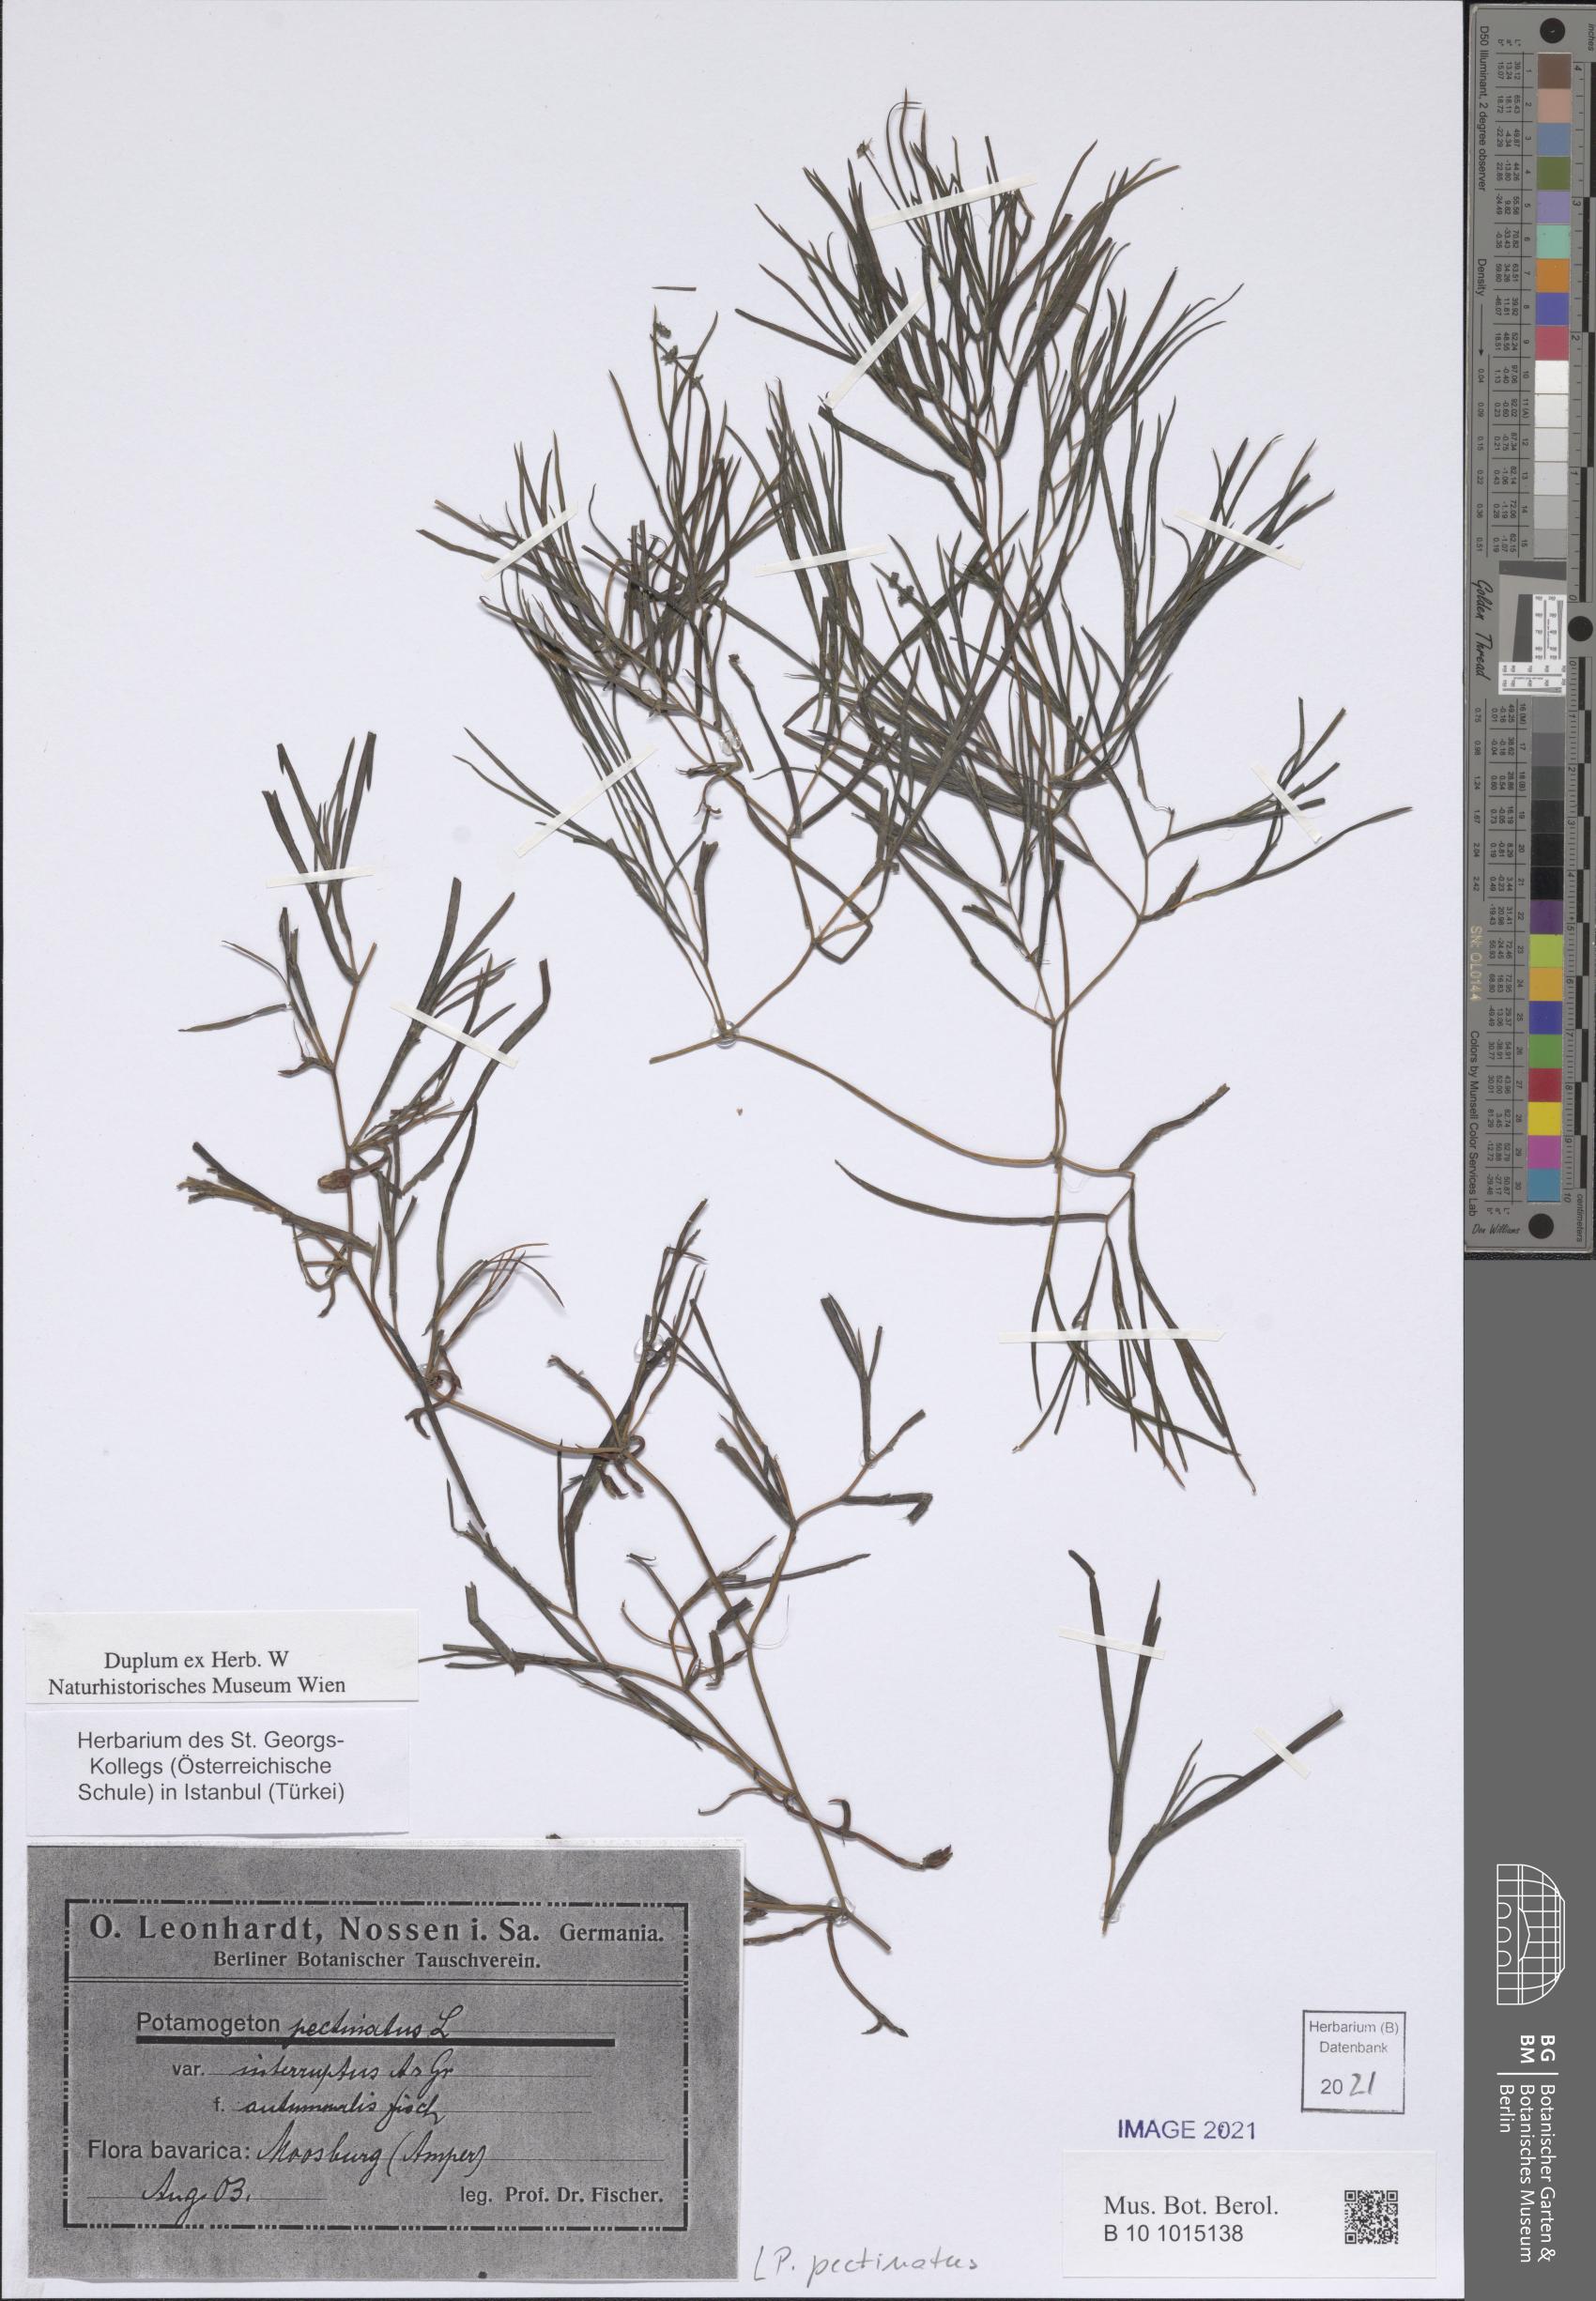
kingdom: Plantae
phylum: Tracheophyta
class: Liliopsida
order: Alismatales
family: Potamogetonaceae
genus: Stuckenia
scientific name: Stuckenia pectinata
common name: Sago pondweed
